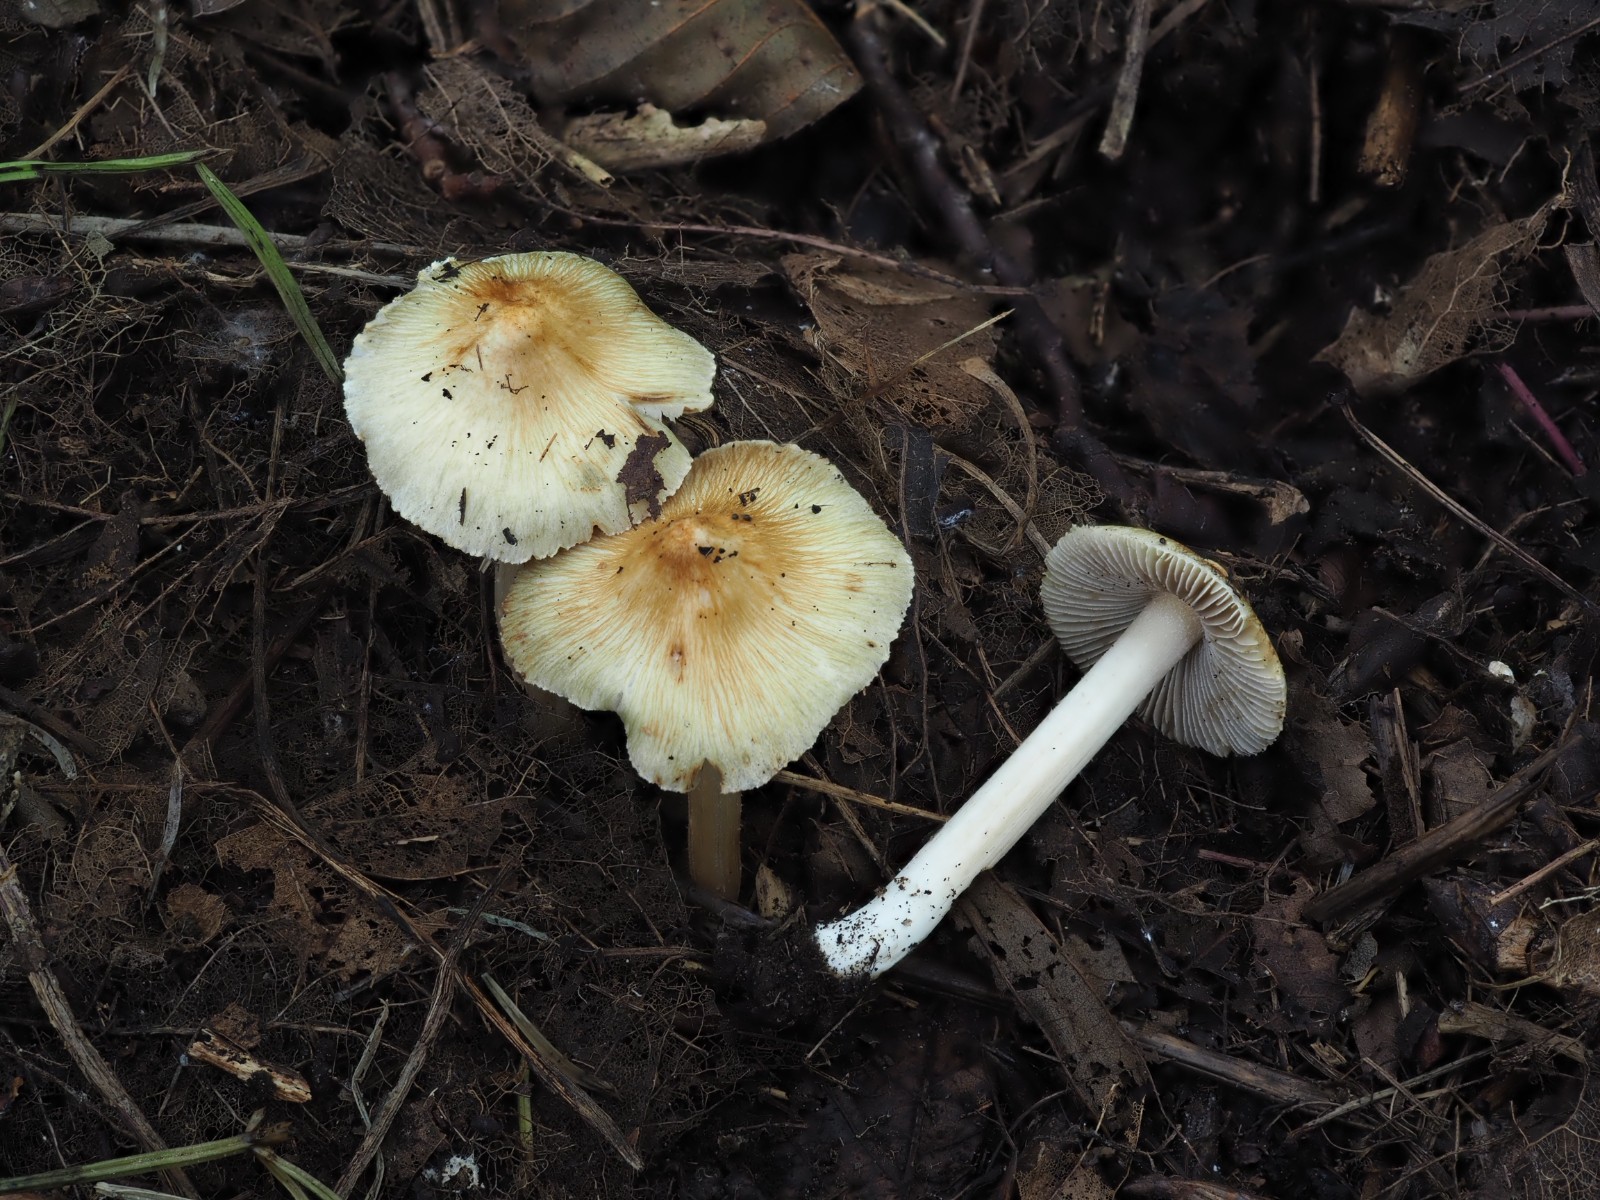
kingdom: Fungi
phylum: Basidiomycota
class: Agaricomycetes
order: Agaricales
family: Inocybaceae
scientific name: Inocybaceae
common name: trævlhatfamilien
